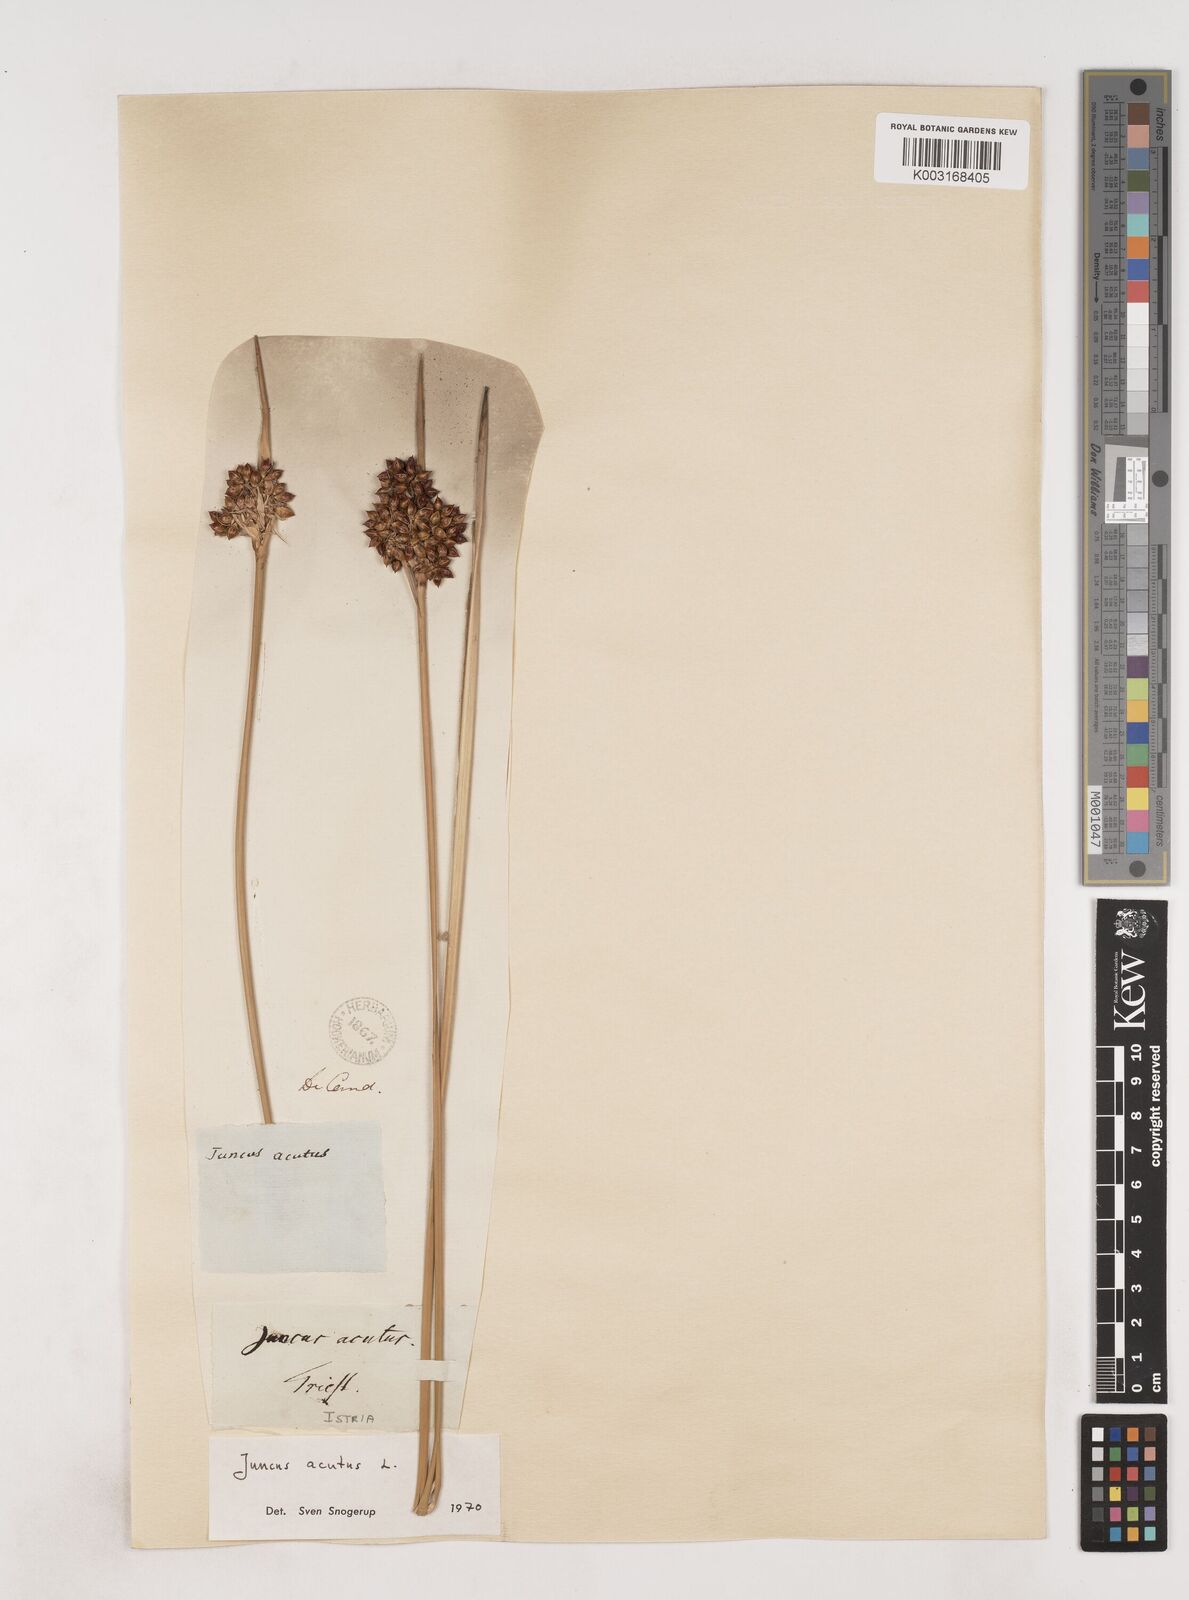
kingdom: Plantae
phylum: Tracheophyta
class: Liliopsida
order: Poales
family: Juncaceae
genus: Juncus
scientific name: Juncus acutus
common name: Sharp rush
